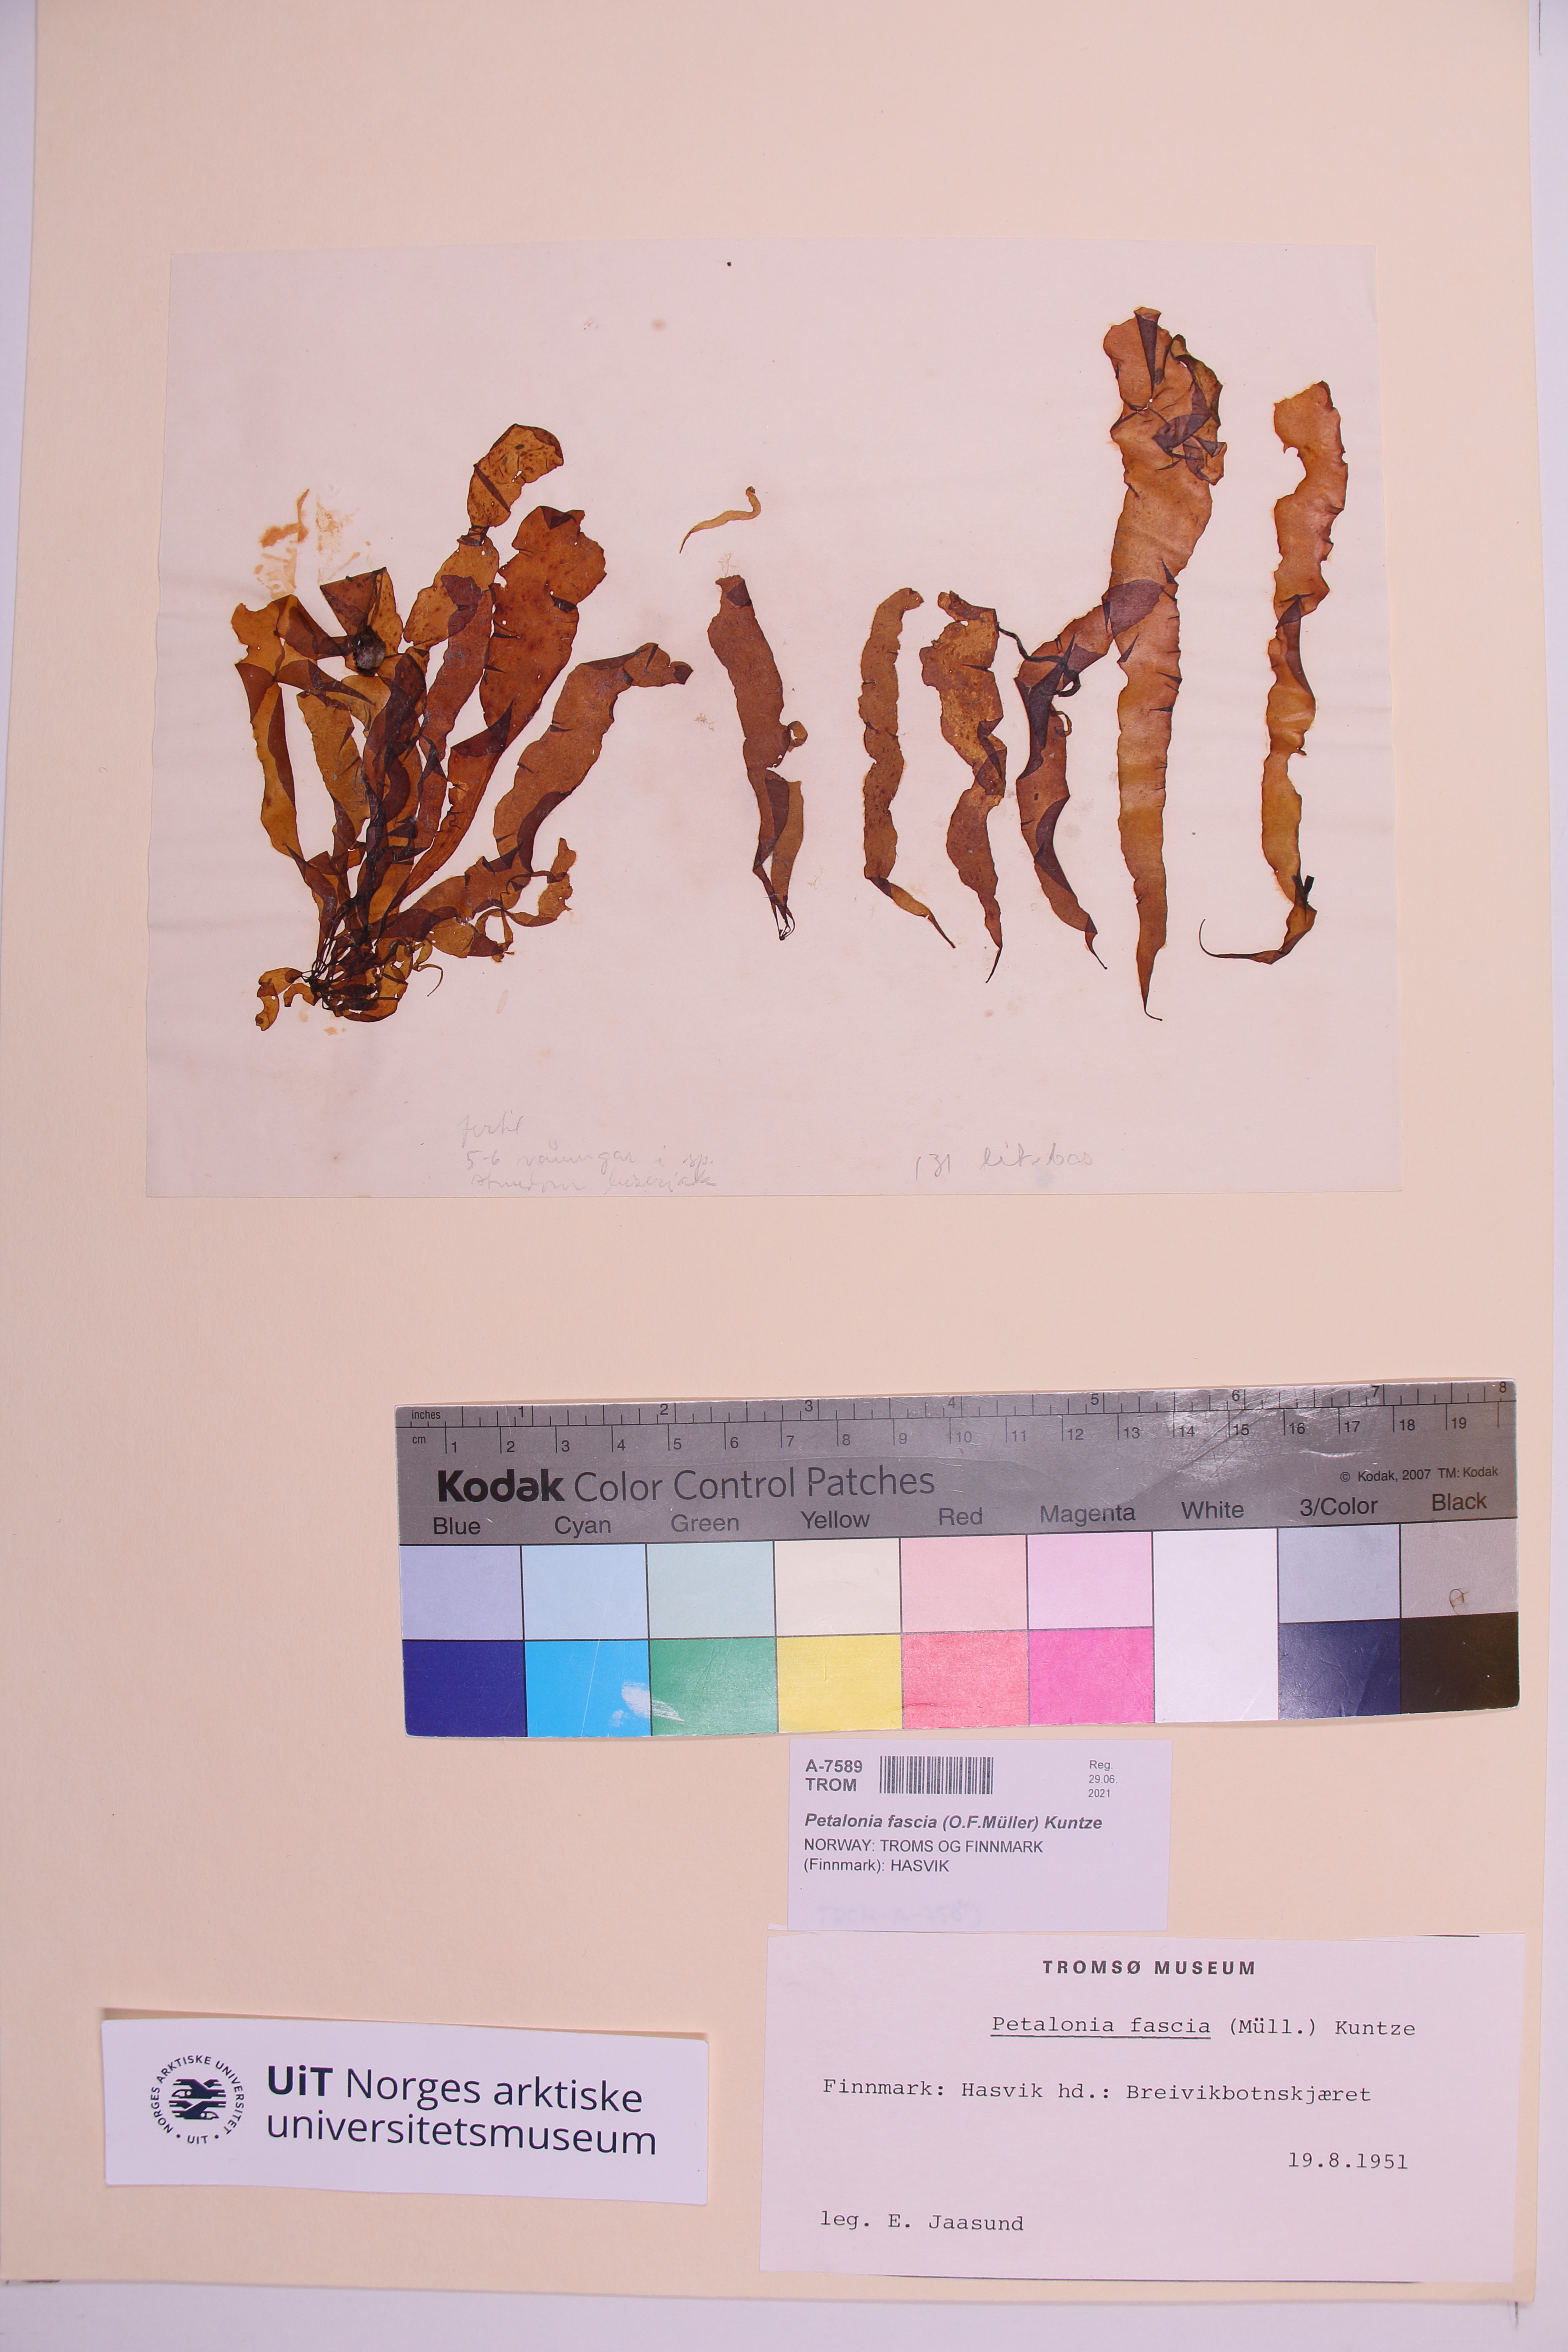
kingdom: Chromista
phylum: Ochrophyta
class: Phaeophyceae
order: Scytosiphonales
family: Scytosiphonaceae
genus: Petalonia
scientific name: Petalonia fascia
